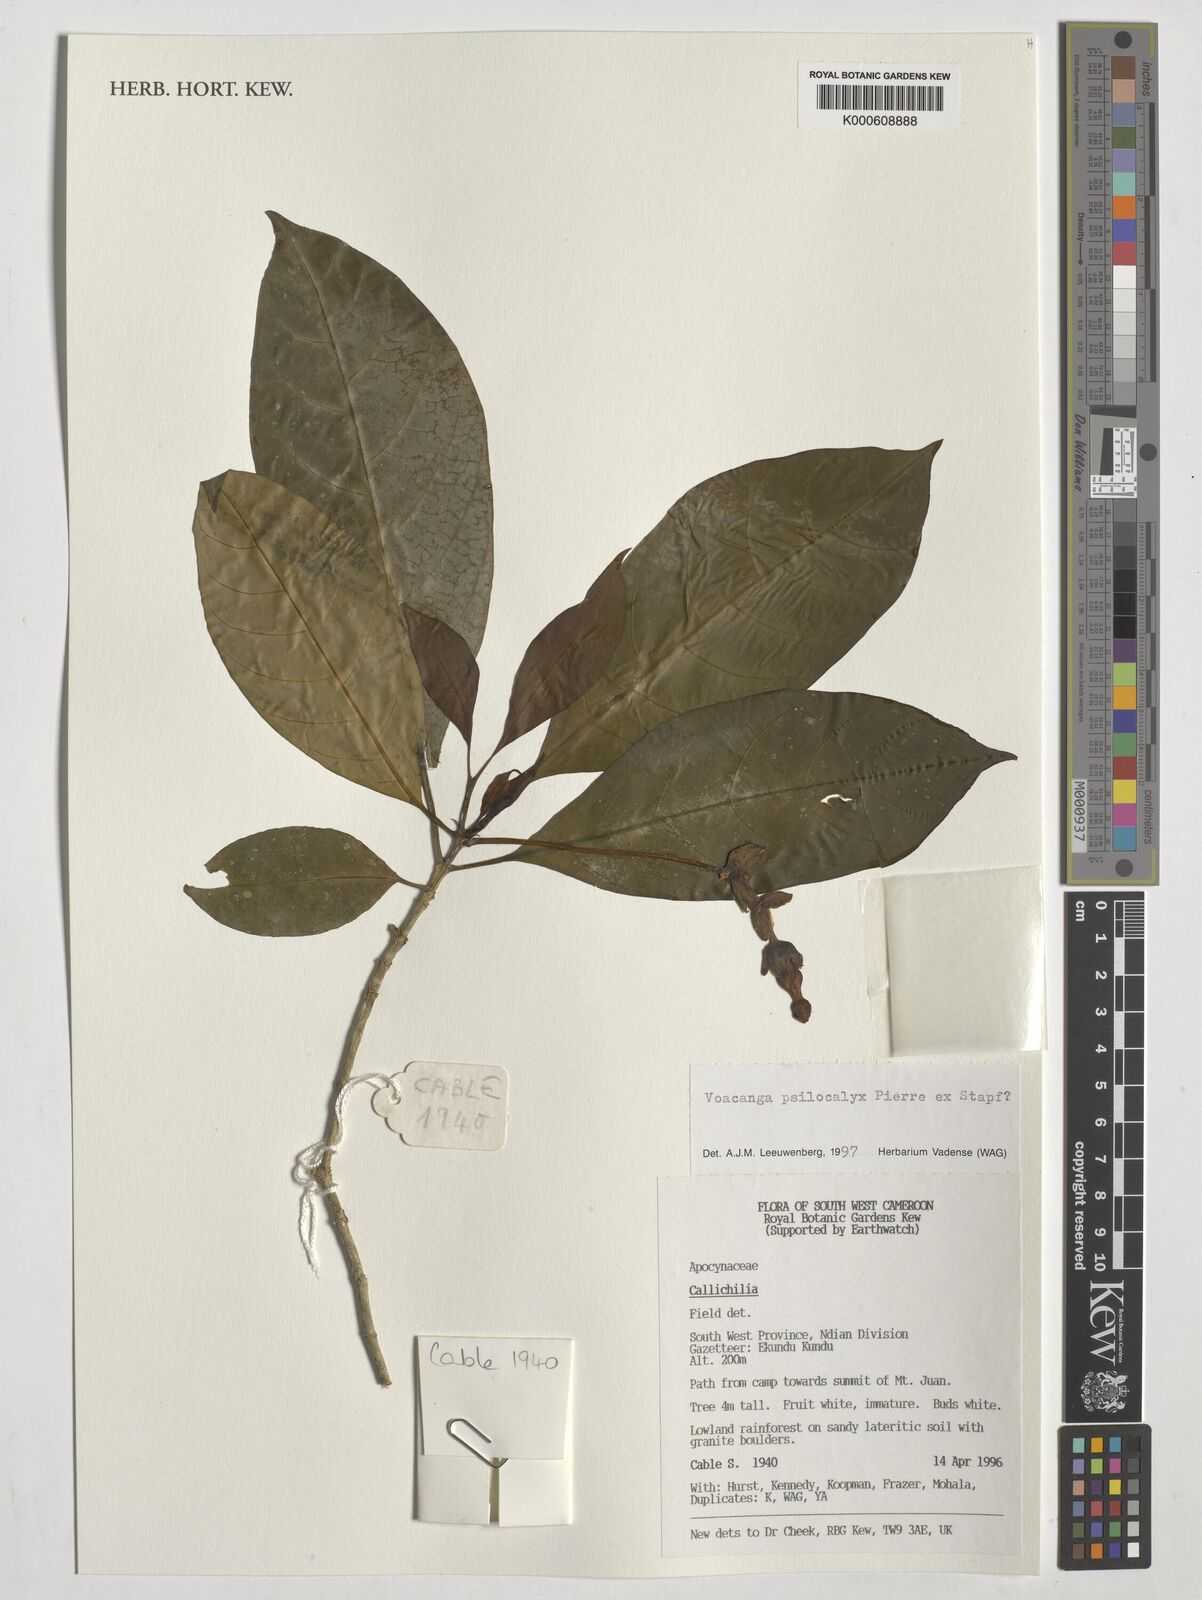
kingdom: Plantae
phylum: Tracheophyta
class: Magnoliopsida
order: Gentianales
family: Apocynaceae
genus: Voacanga
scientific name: Voacanga psilocalyx
